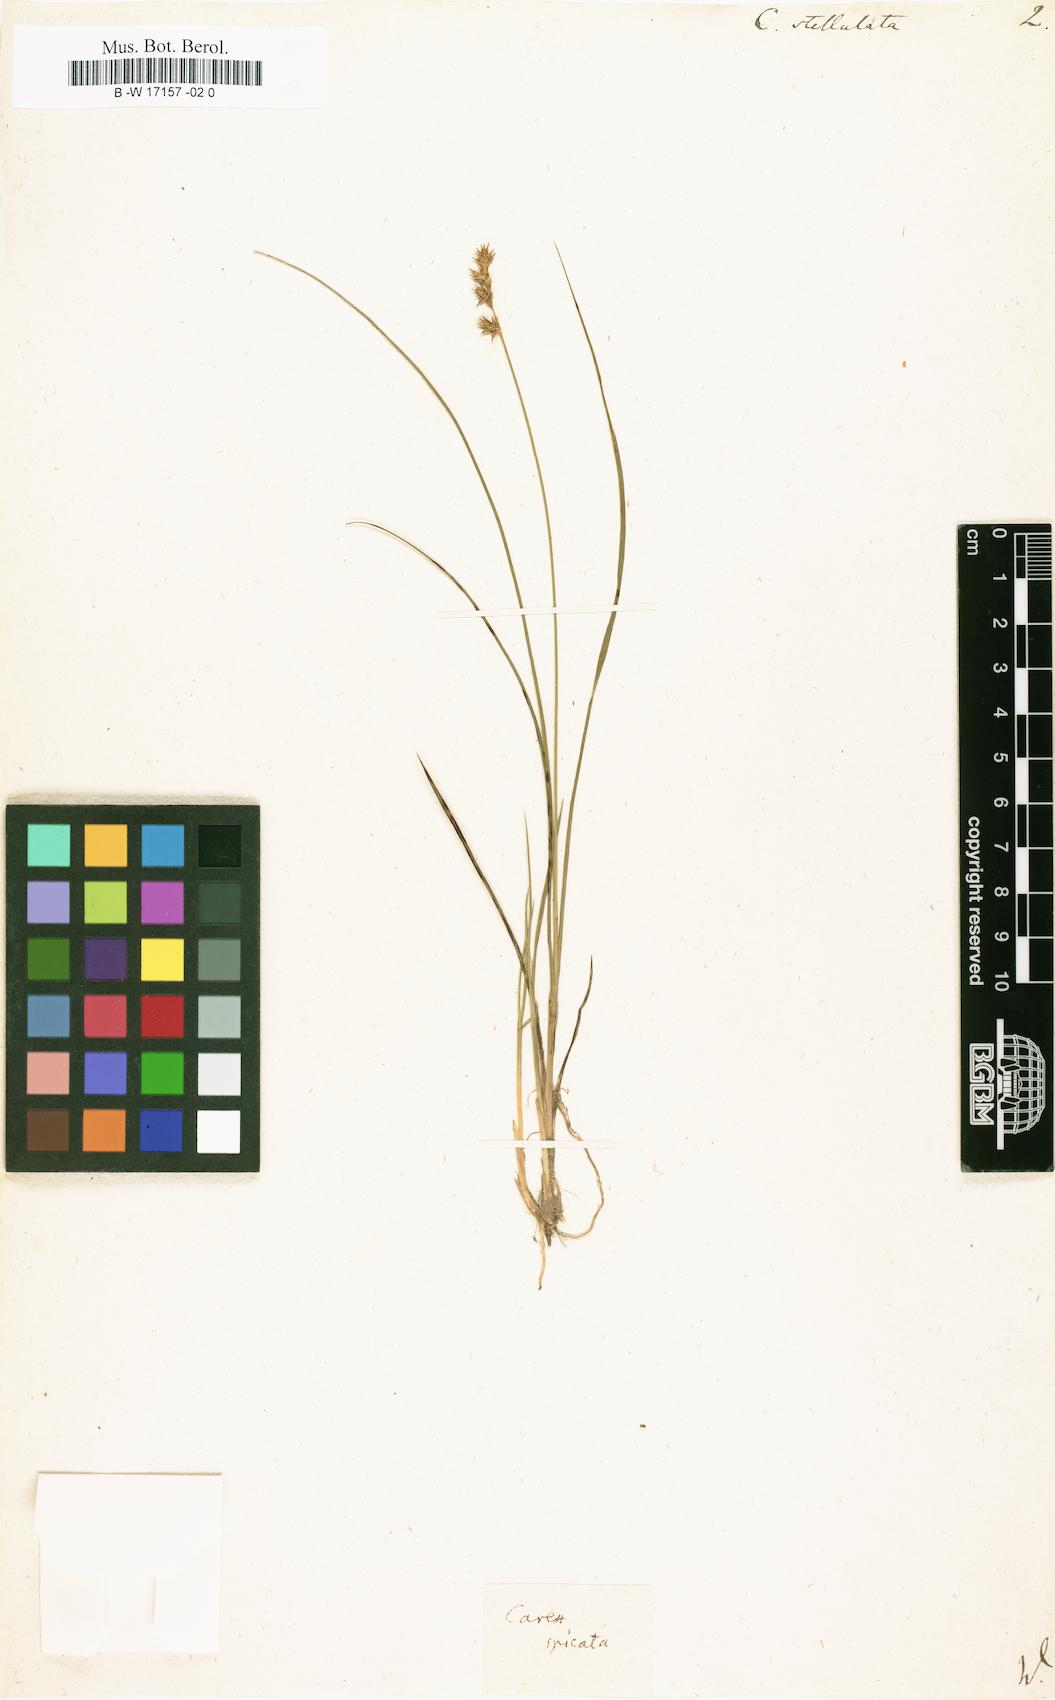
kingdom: Plantae
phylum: Tracheophyta
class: Liliopsida
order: Poales
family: Cyperaceae
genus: Carex
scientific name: Carex
